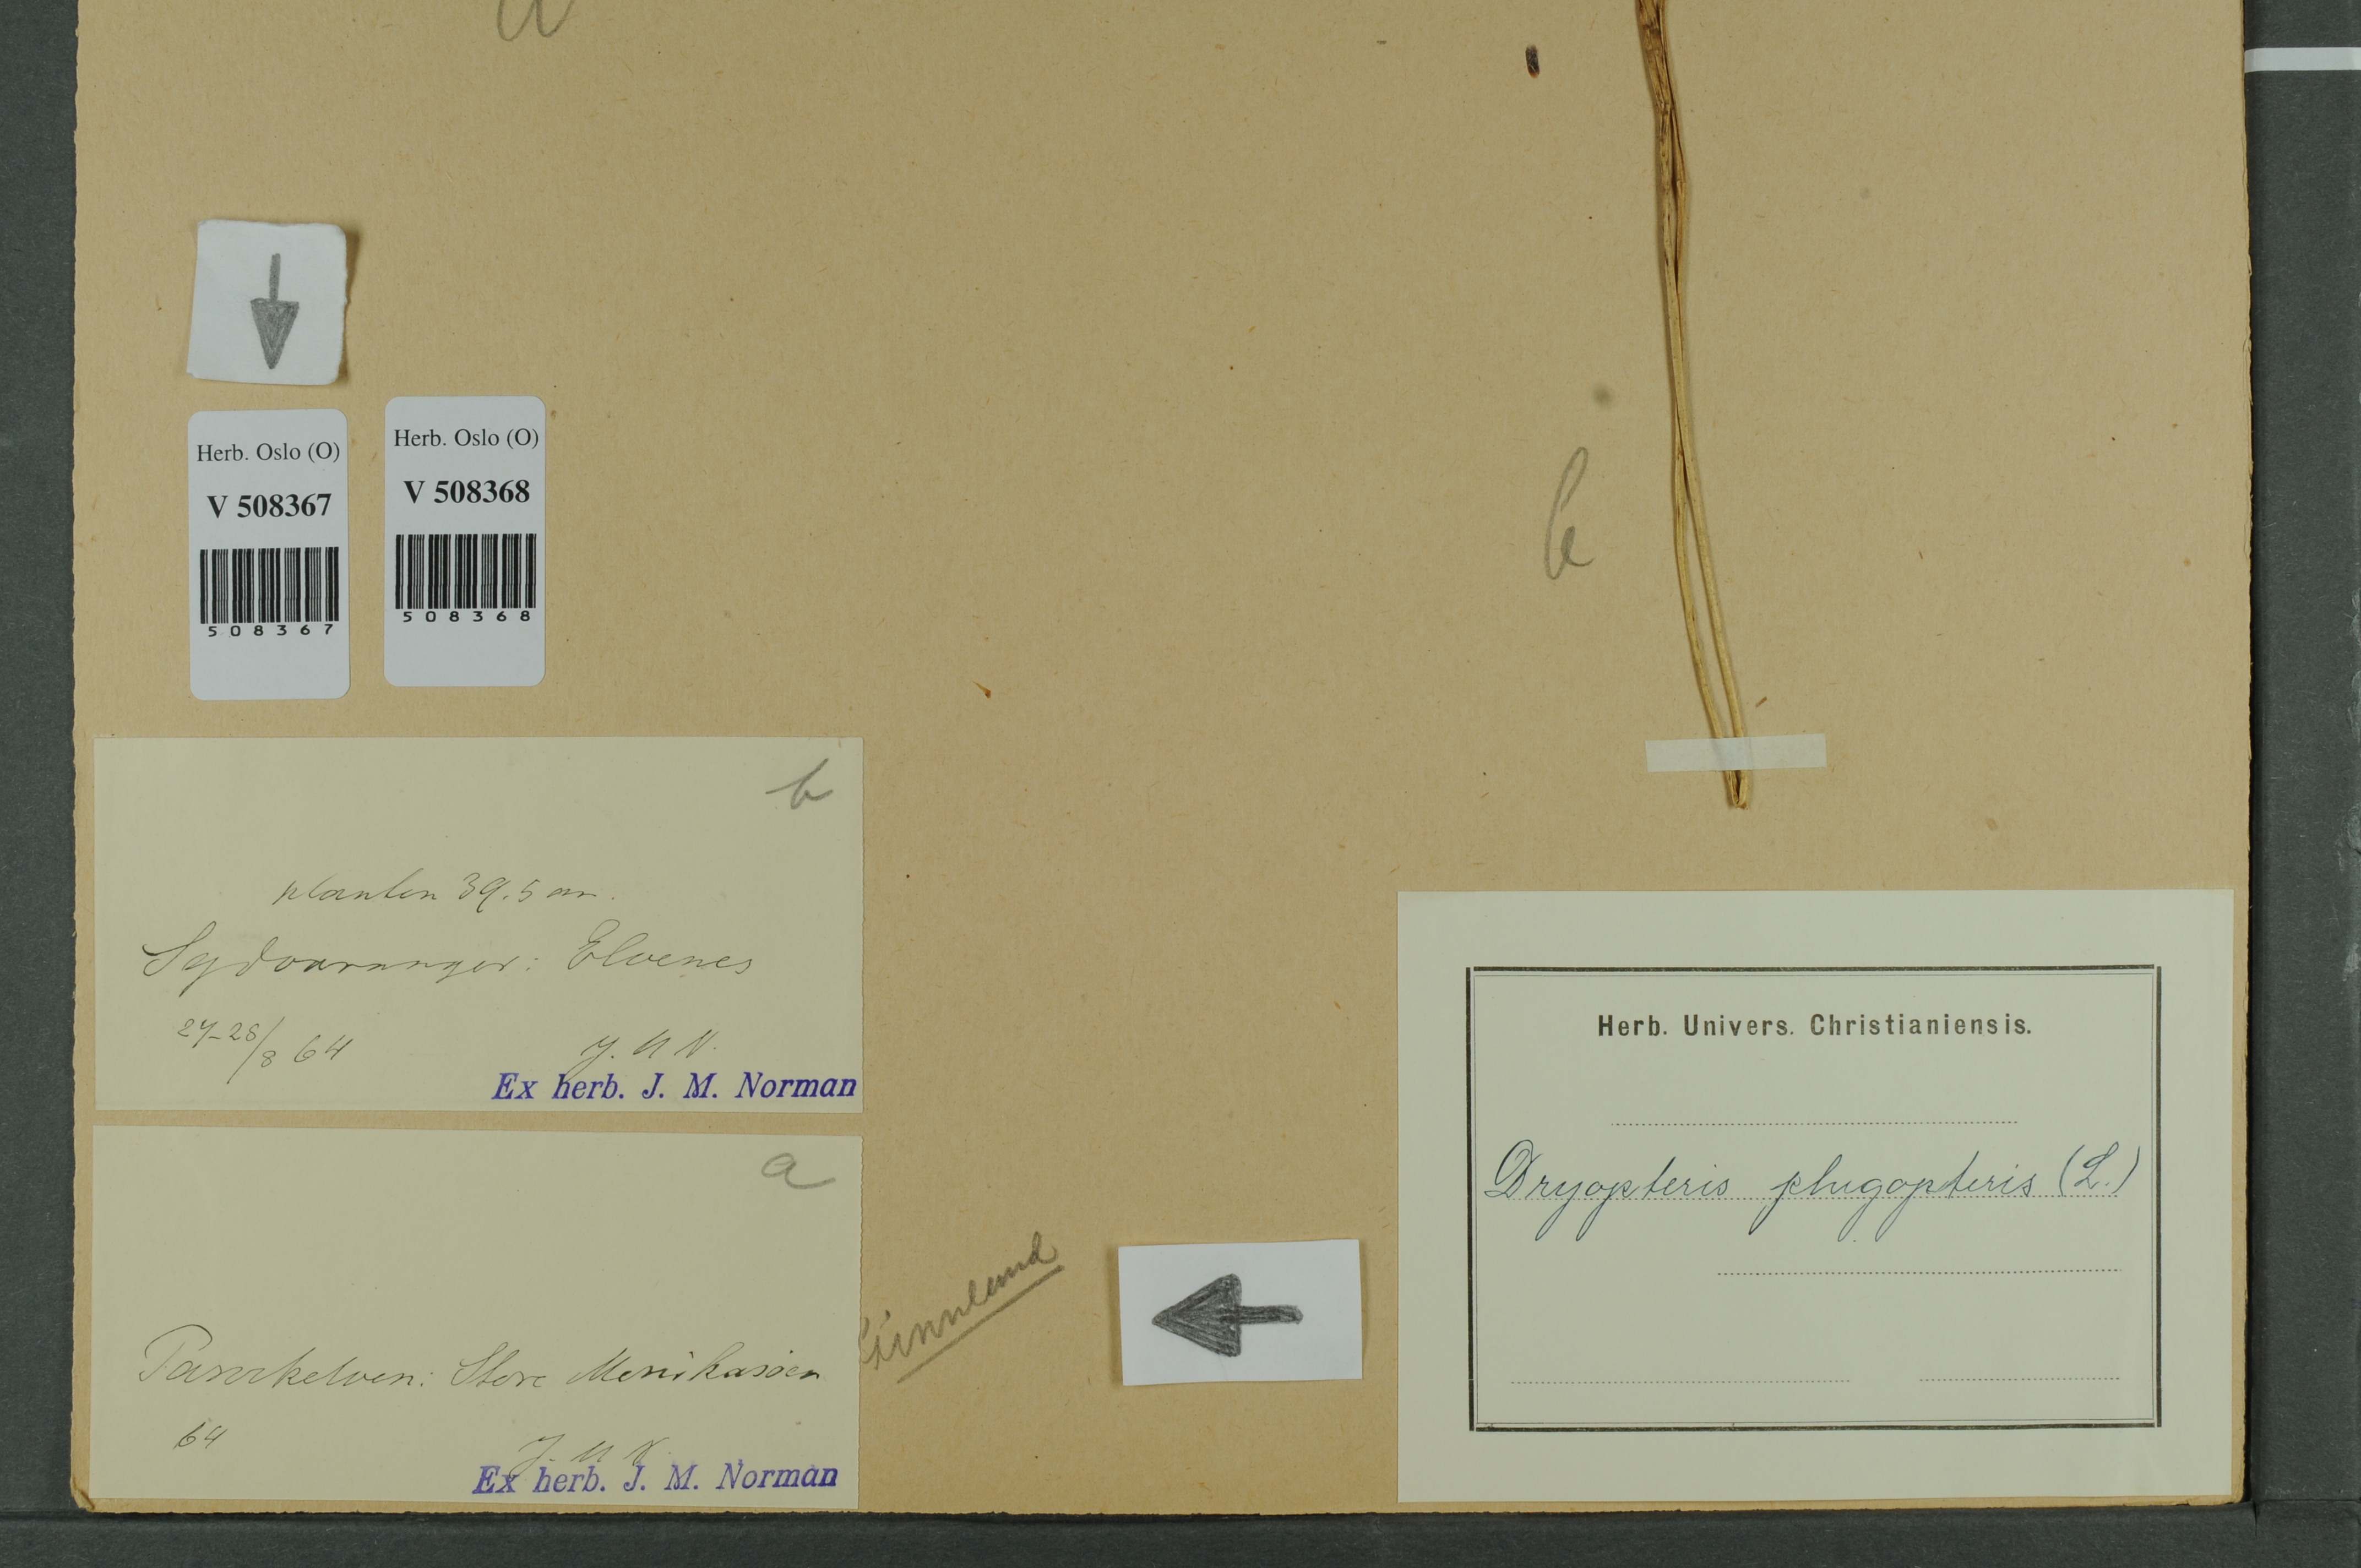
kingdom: Plantae
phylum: Tracheophyta
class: Polypodiopsida
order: Polypodiales
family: Thelypteridaceae
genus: Phegopteris
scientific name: Phegopteris connectilis
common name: Beech fern
